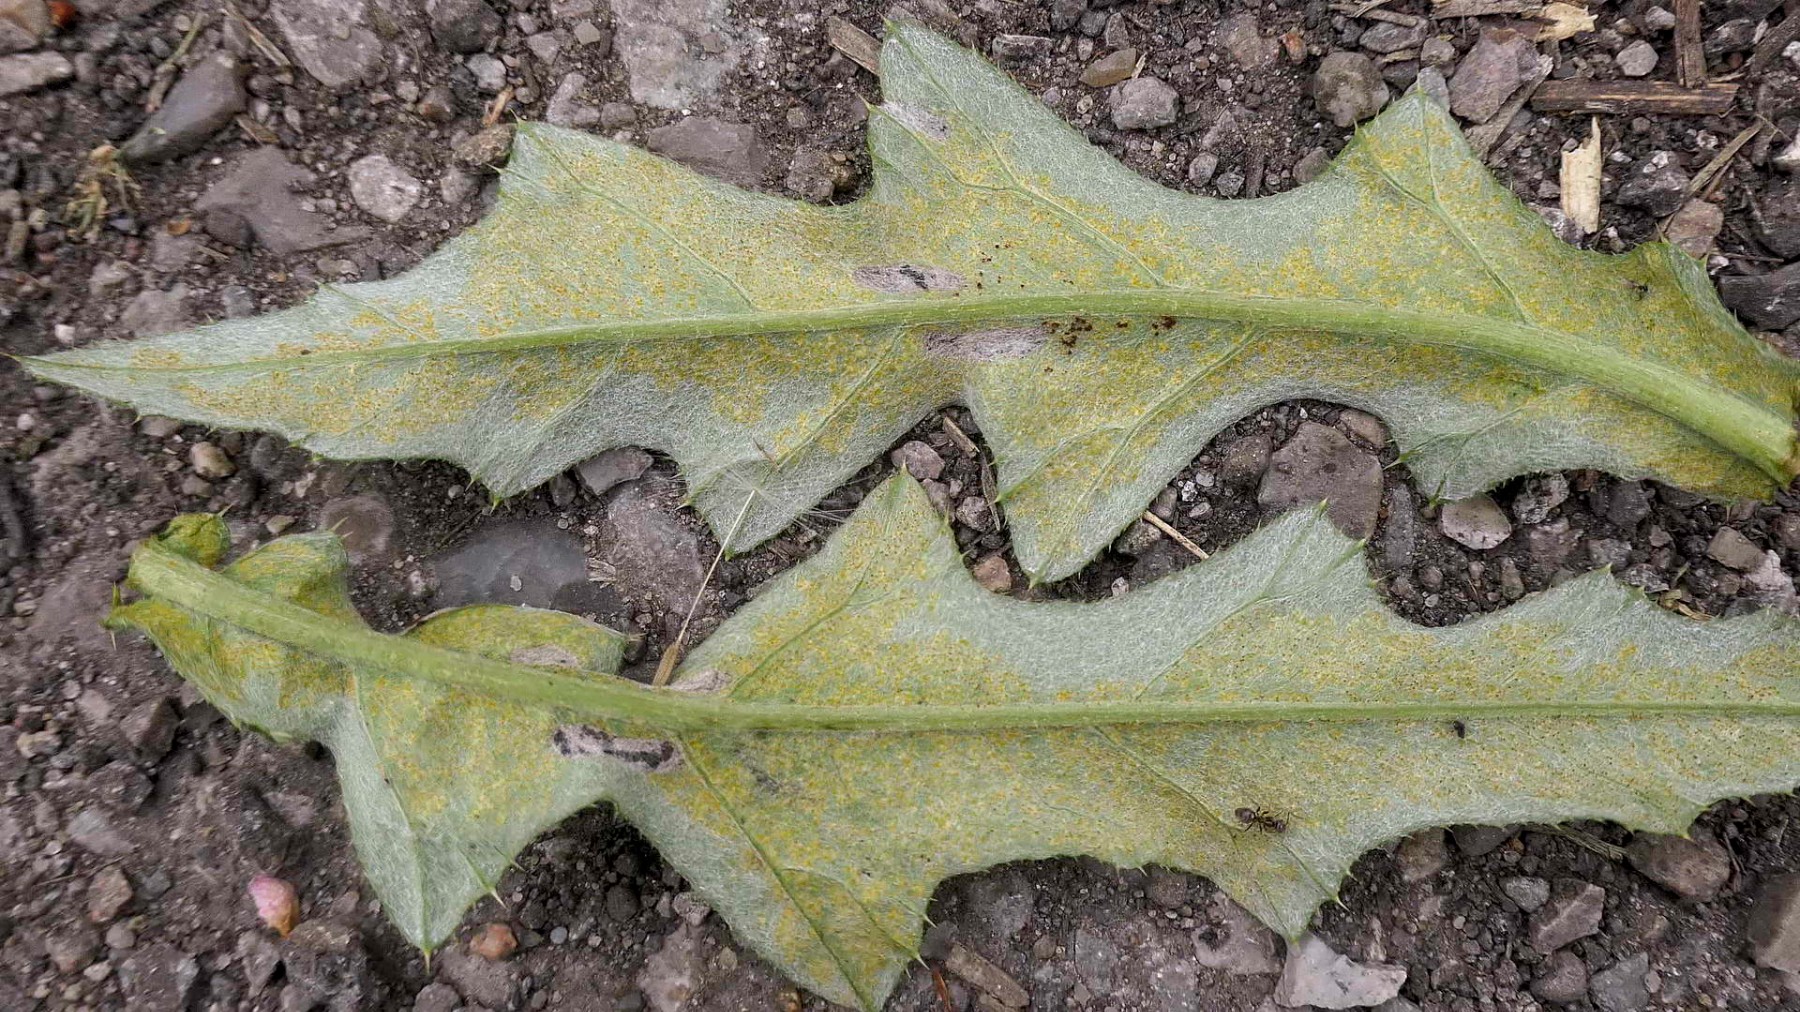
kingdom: Fungi
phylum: Basidiomycota
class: Pucciniomycetes
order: Pucciniales
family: Pucciniaceae
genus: Puccinia
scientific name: Puccinia suaveolens
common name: tidsel-tvecellerust
